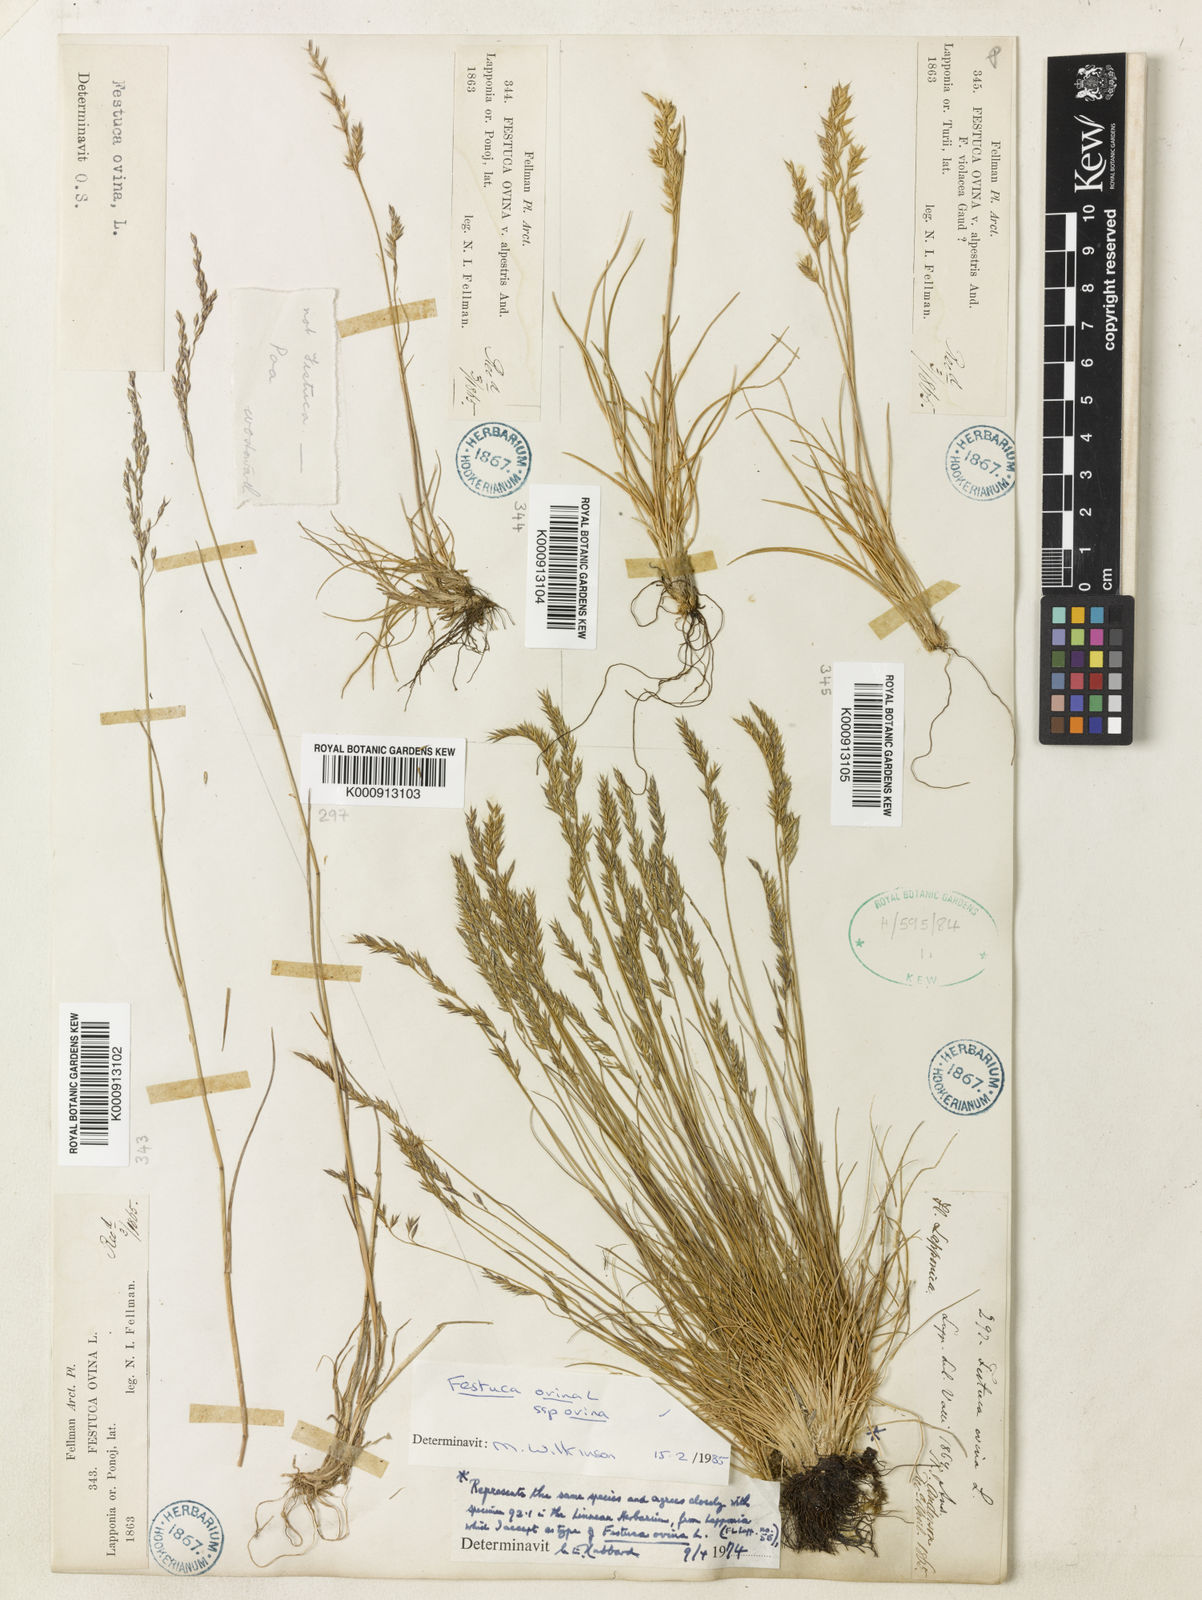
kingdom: Plantae
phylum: Tracheophyta
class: Liliopsida
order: Poales
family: Poaceae
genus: Festuca
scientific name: Festuca ovina
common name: Sheep fescue
